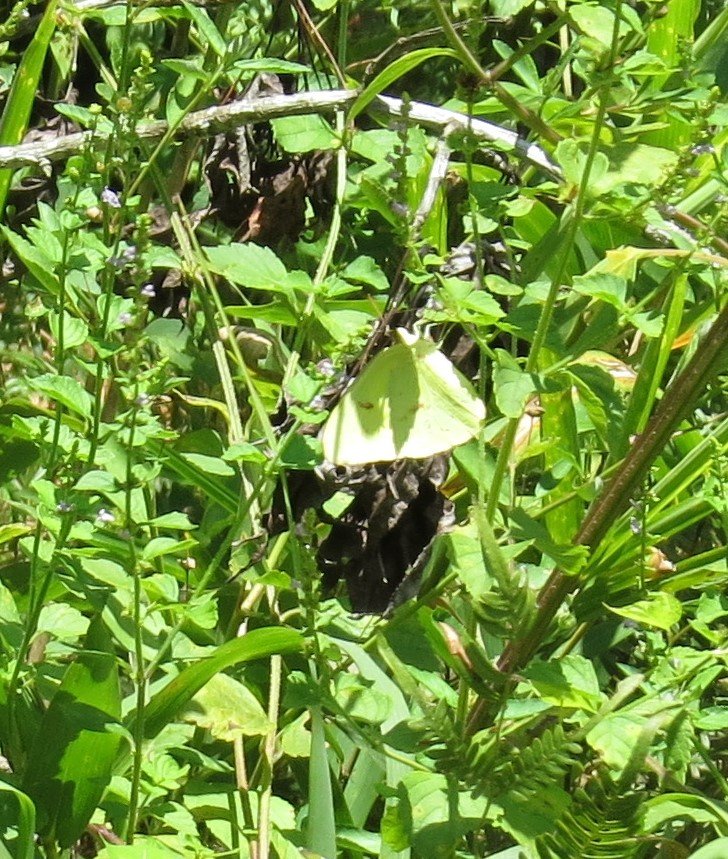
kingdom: Animalia
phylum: Arthropoda
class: Insecta
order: Lepidoptera
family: Pieridae
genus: Phoebis
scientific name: Phoebis sennae
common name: Cloudless Sulphur
